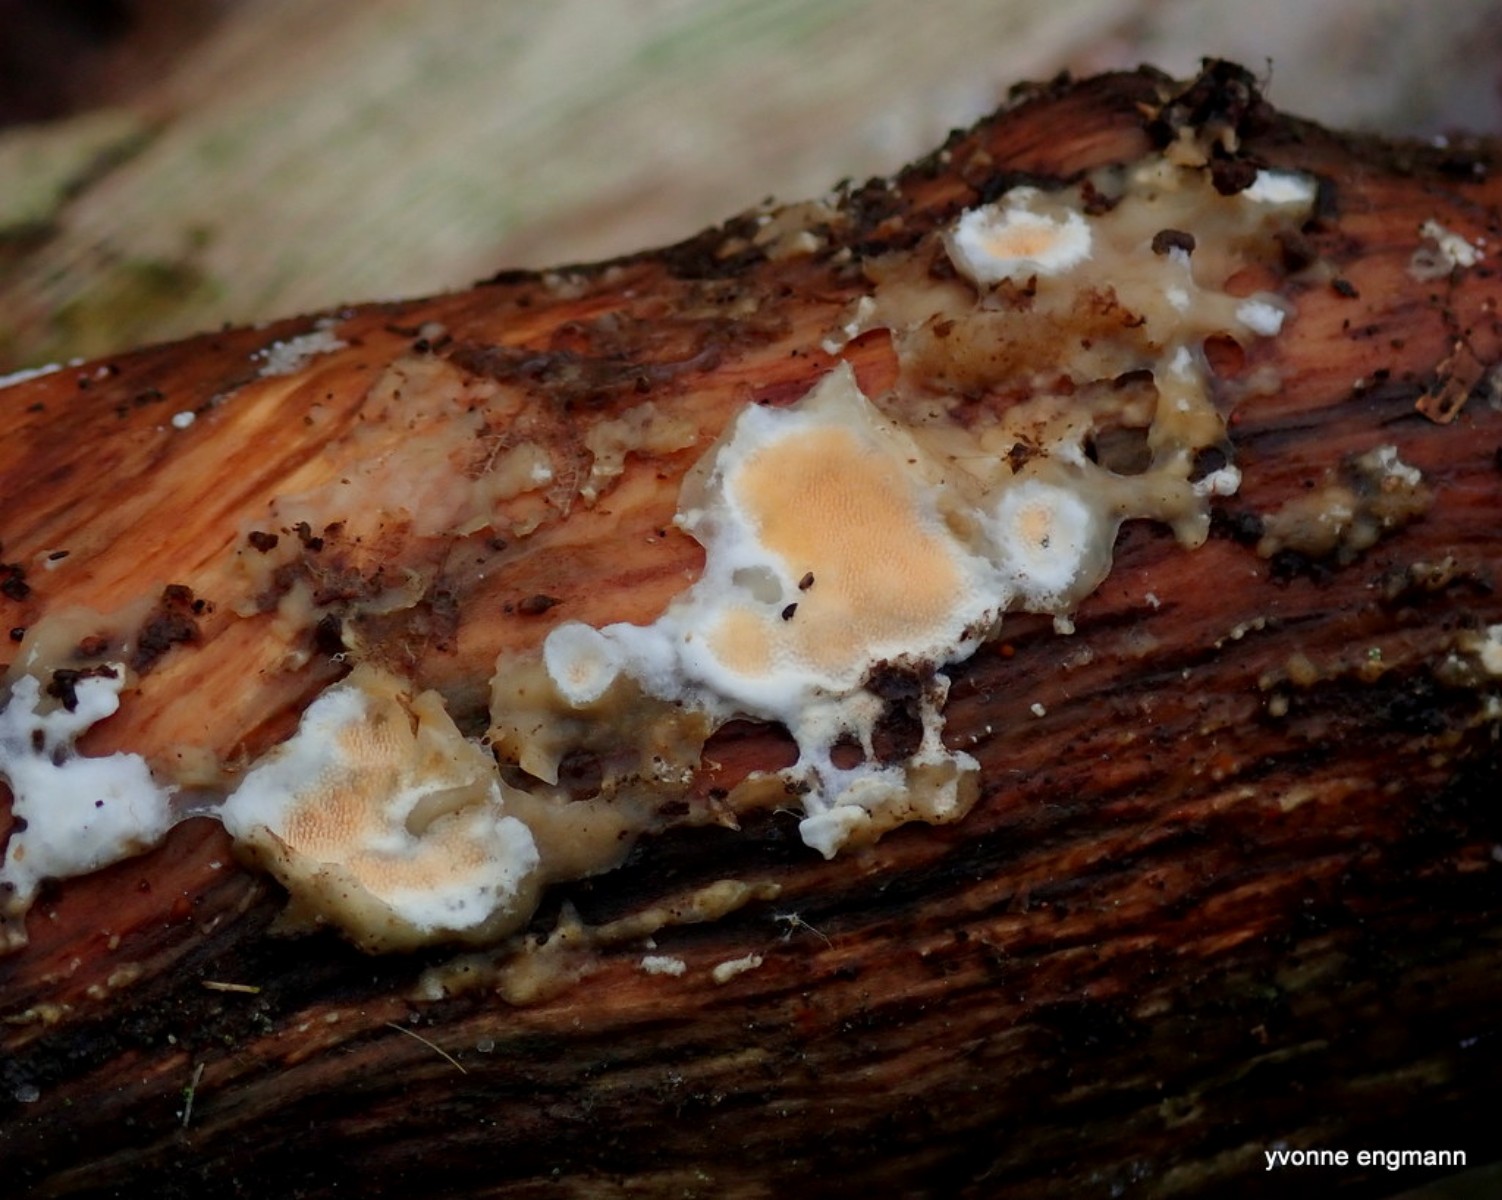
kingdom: Fungi
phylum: Basidiomycota
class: Agaricomycetes
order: Polyporales
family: Steccherinaceae
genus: Steccherinum
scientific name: Steccherinum ochraceum
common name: almindelig skønpig
